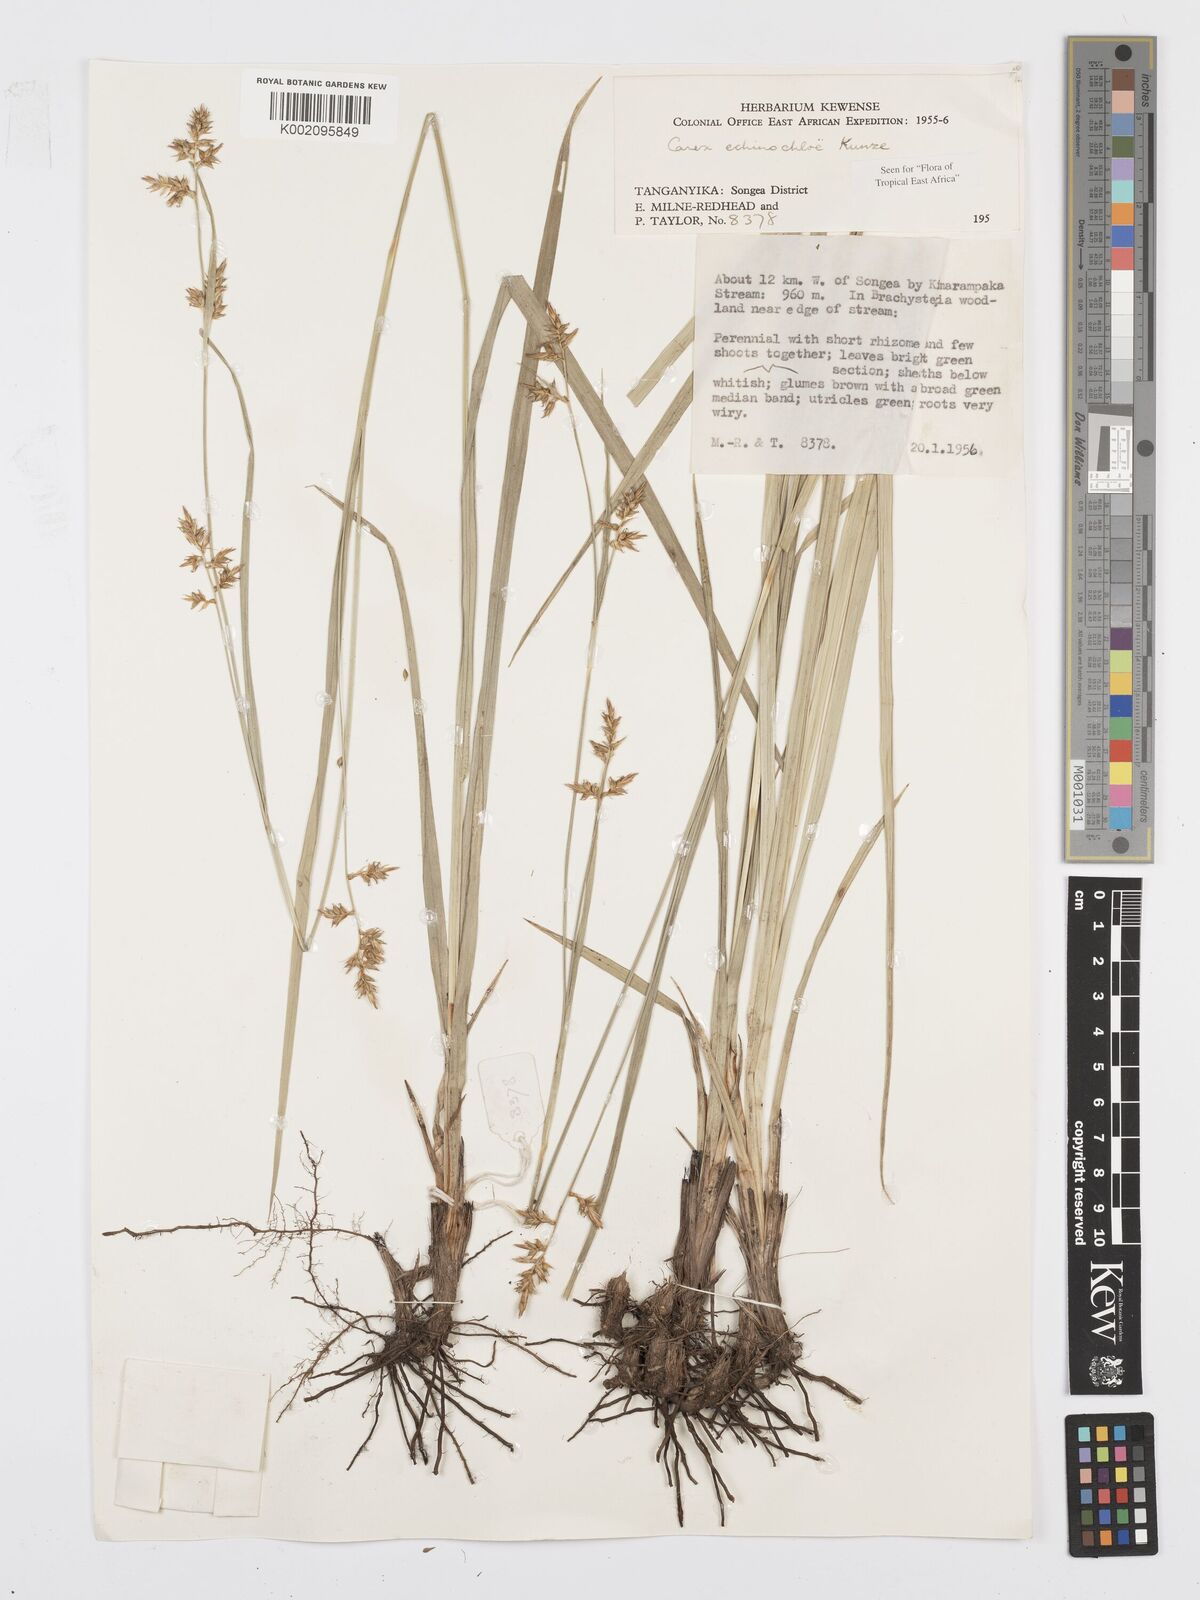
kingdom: Plantae
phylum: Tracheophyta
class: Liliopsida
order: Poales
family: Cyperaceae
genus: Carex
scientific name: Carex echinochloe
